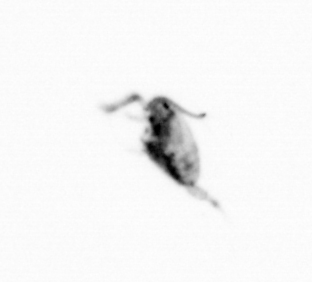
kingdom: Animalia
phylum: Arthropoda
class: Copepoda
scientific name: Copepoda
